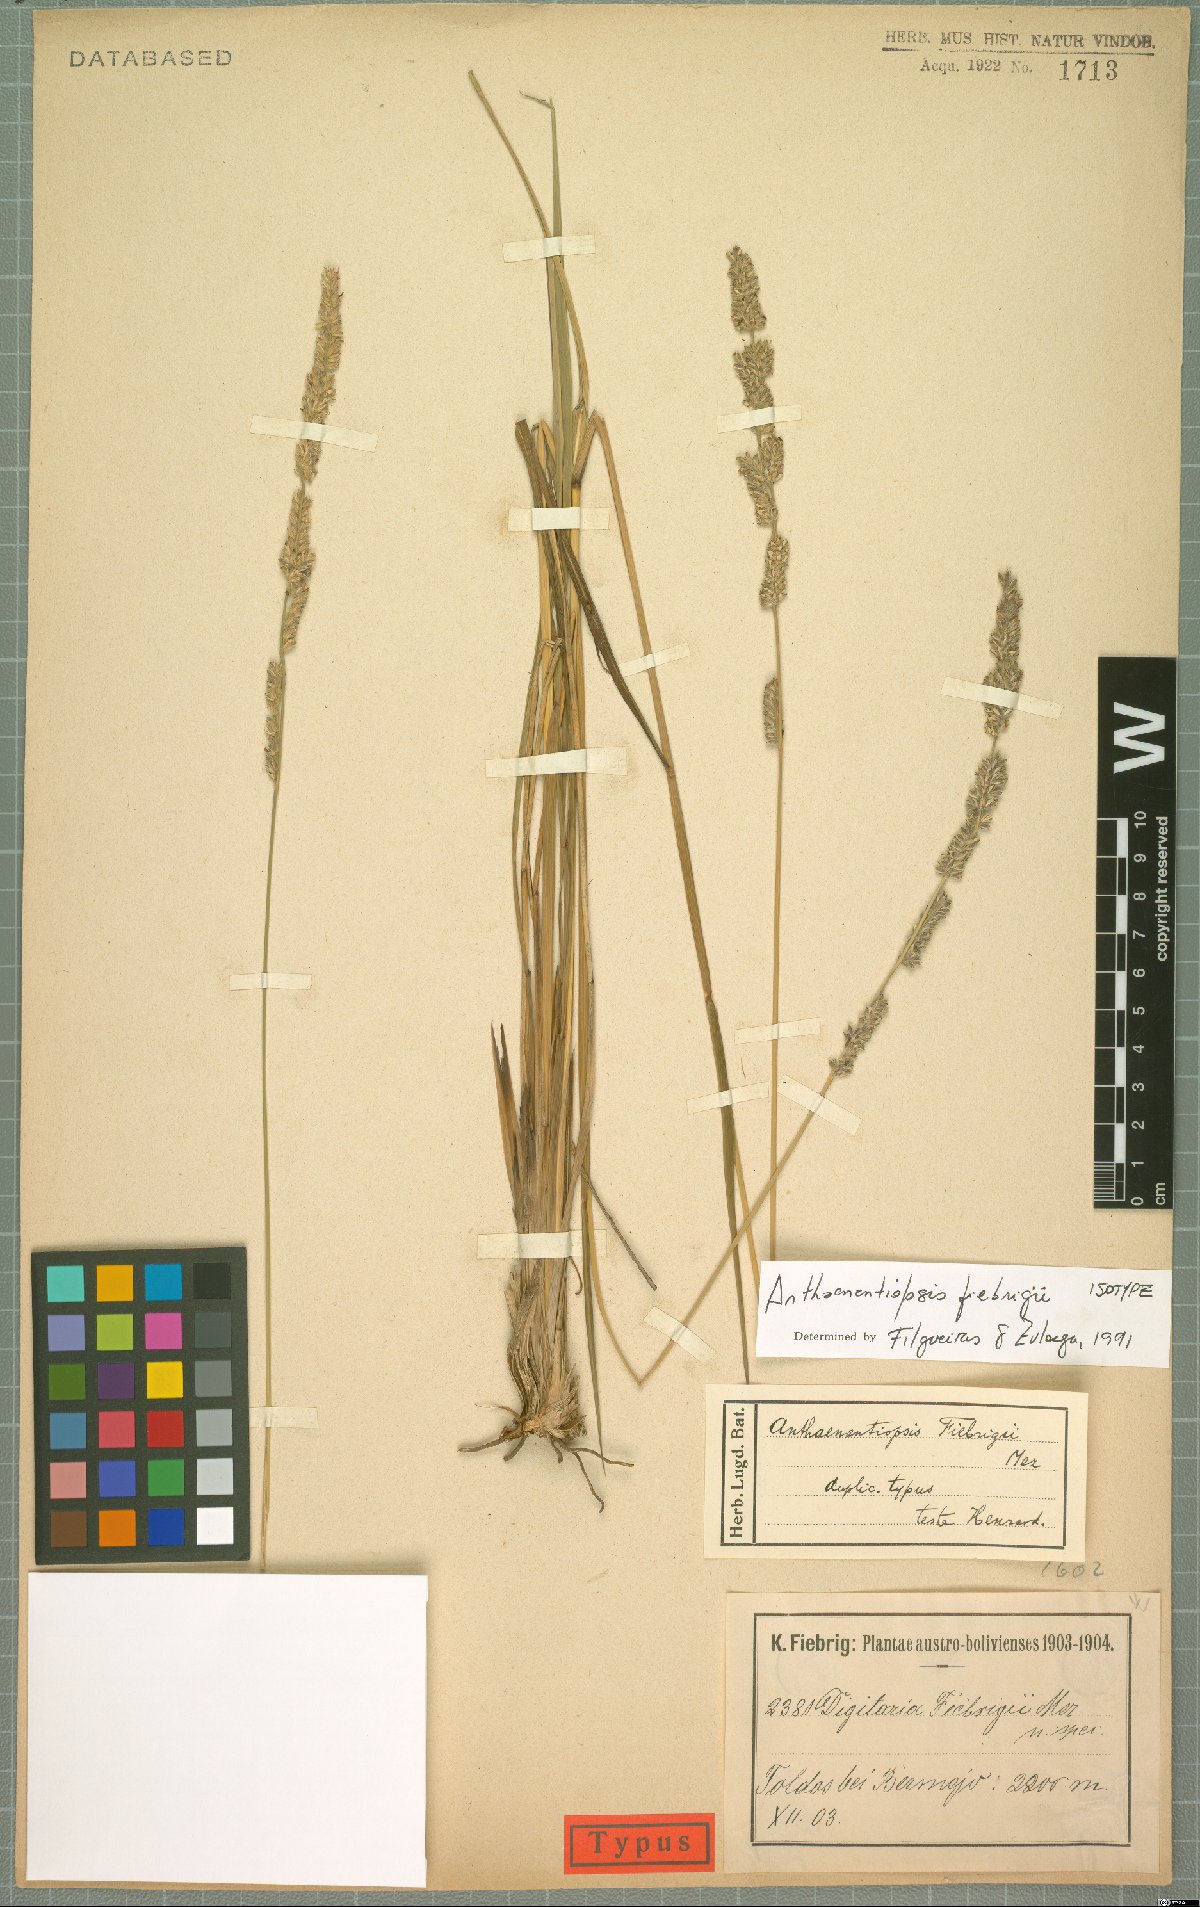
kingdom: Plantae
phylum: Tracheophyta
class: Liliopsida
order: Poales
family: Poaceae
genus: Anthaenantiopsis
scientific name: Anthaenantiopsis fiebrigii
